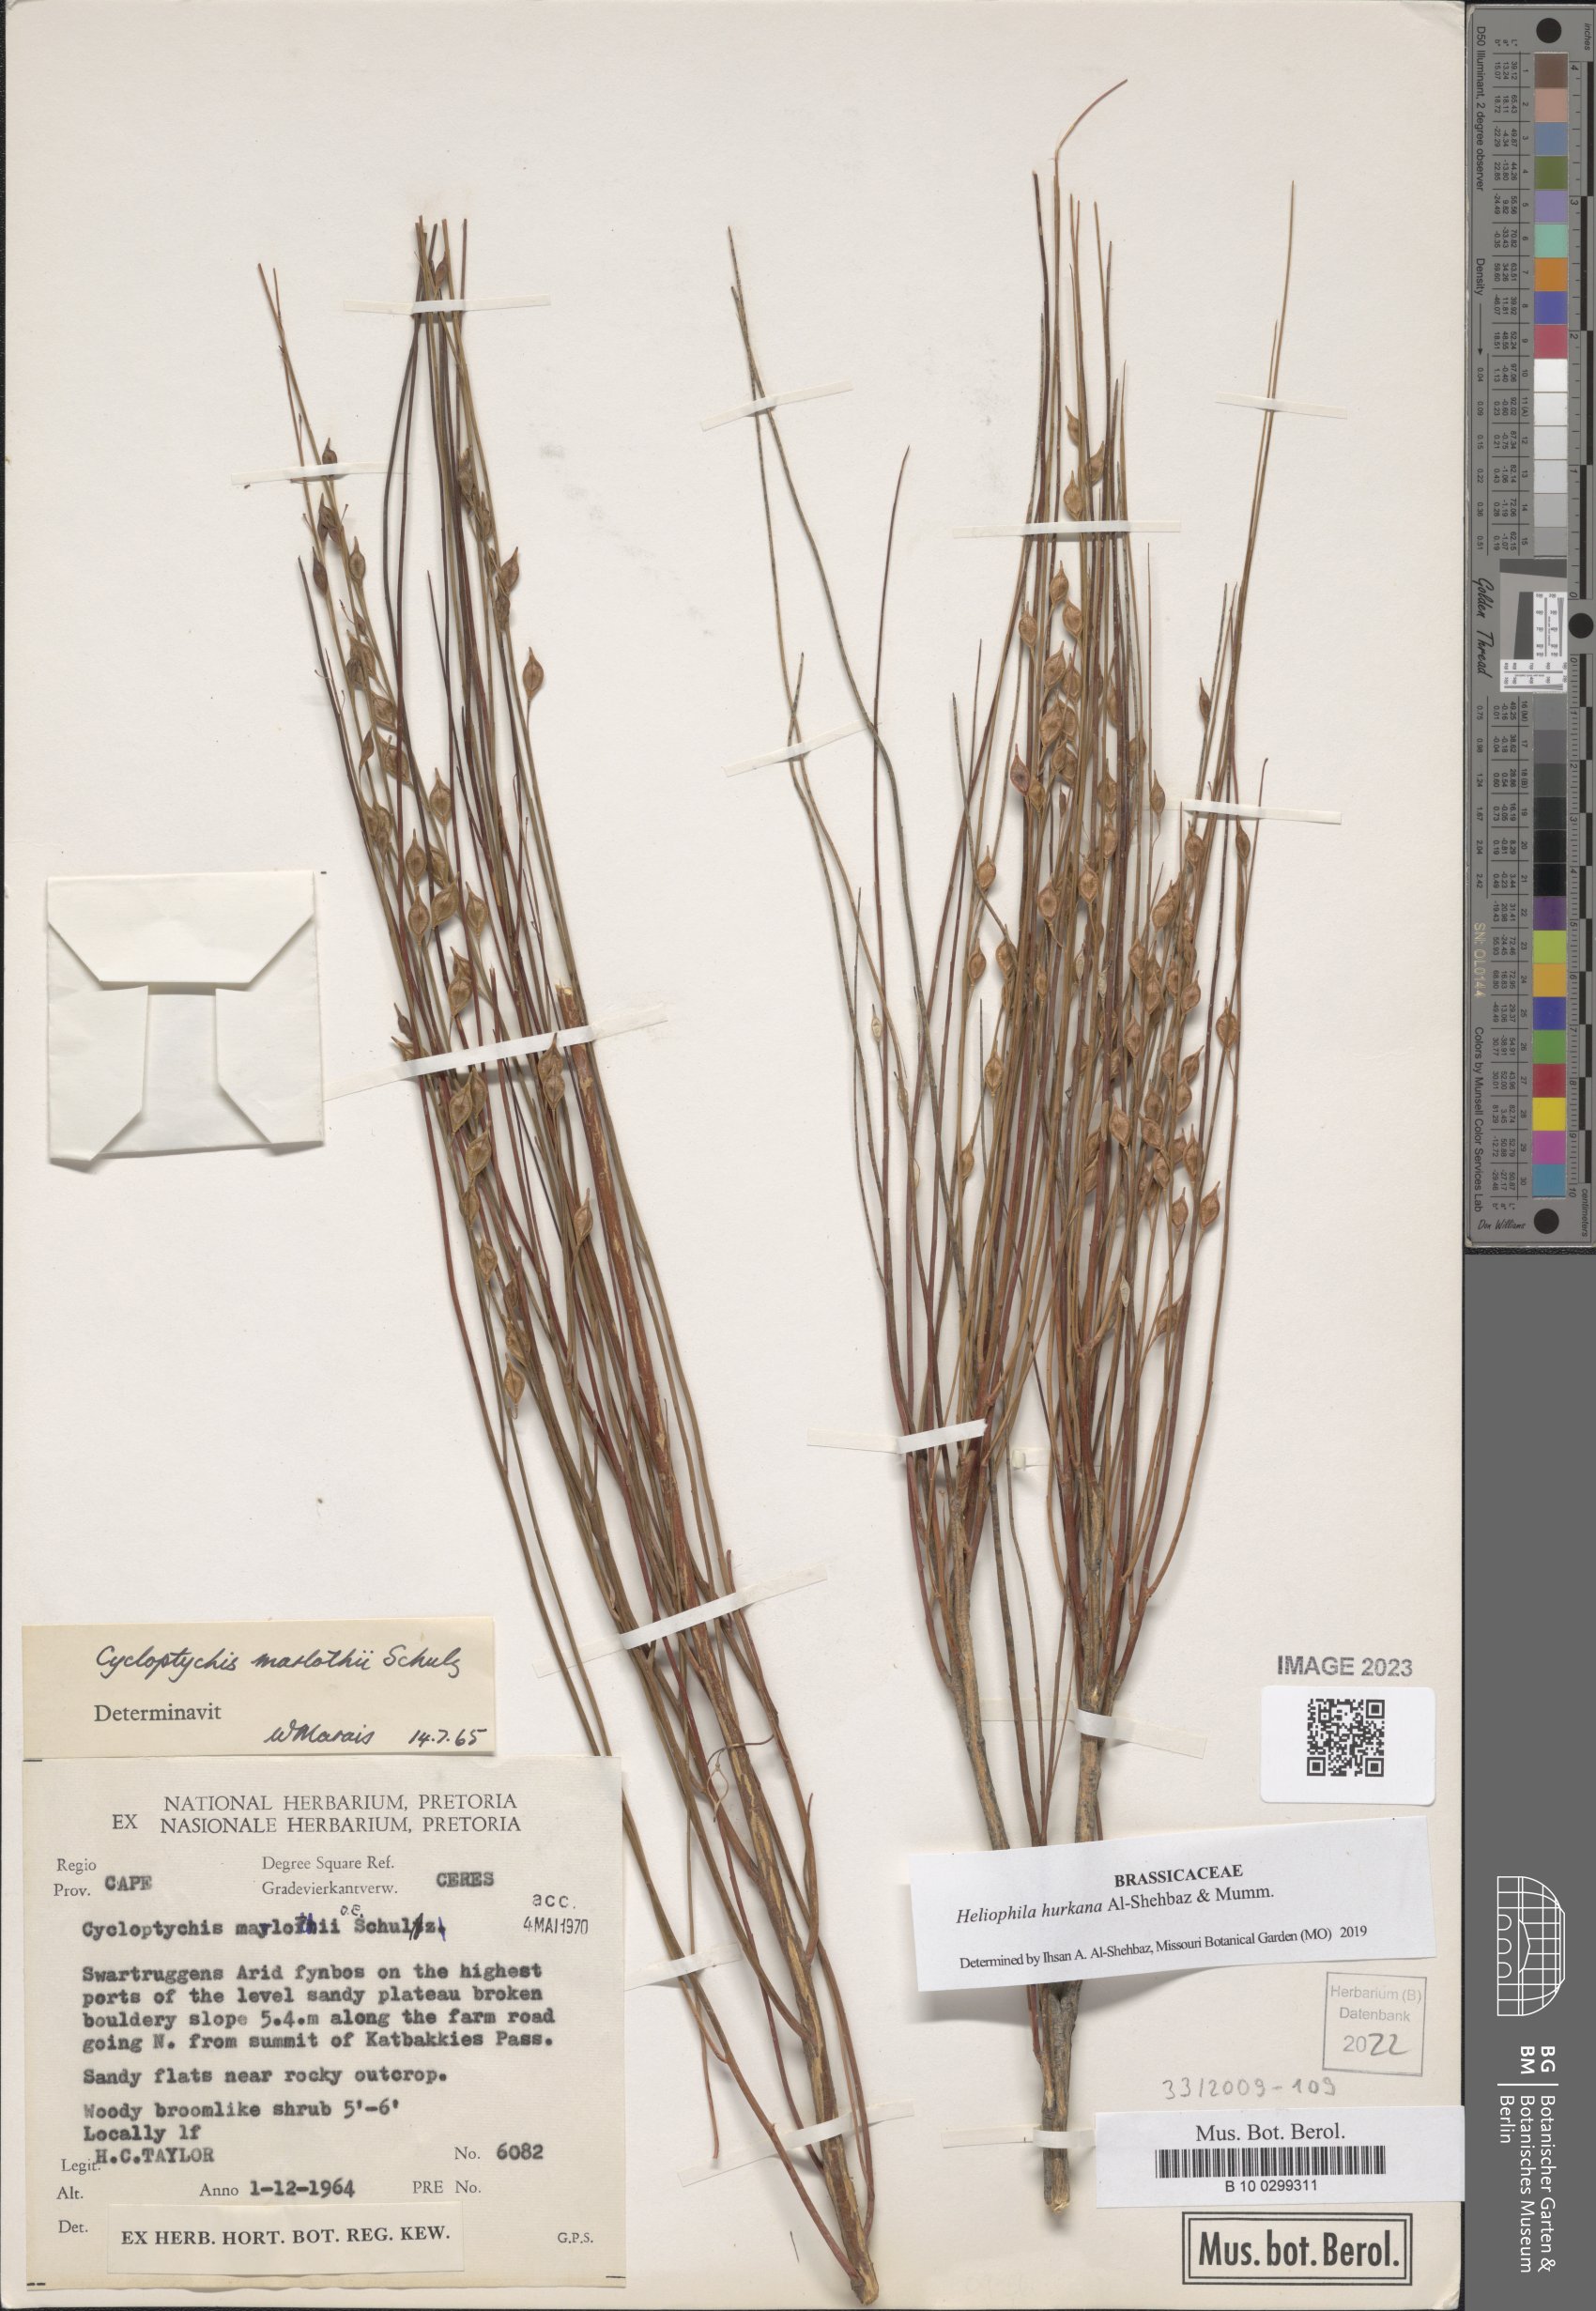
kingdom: Plantae
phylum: Tracheophyta
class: Magnoliopsida
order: Brassicales
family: Brassicaceae
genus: Heliophila
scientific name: Heliophila hurkana
